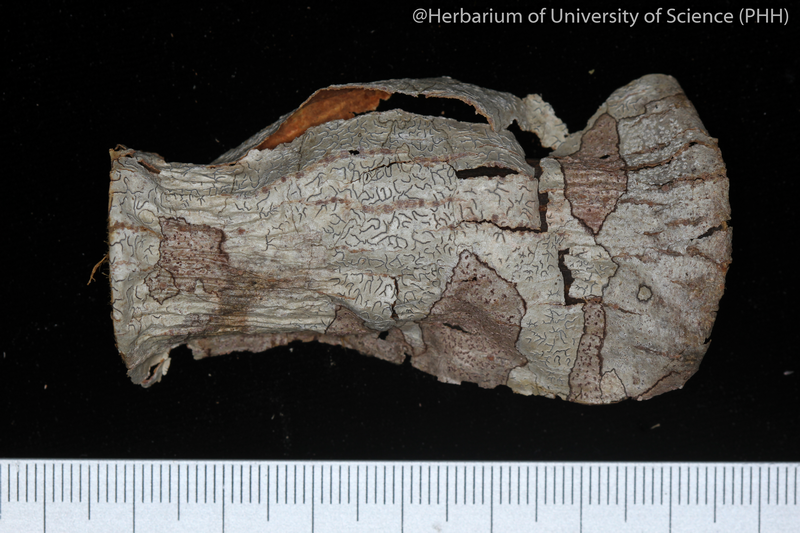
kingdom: Fungi
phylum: Ascomycota
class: Lecanoromycetes
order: Ostropales
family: Graphidaceae
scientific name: Graphidaceae
